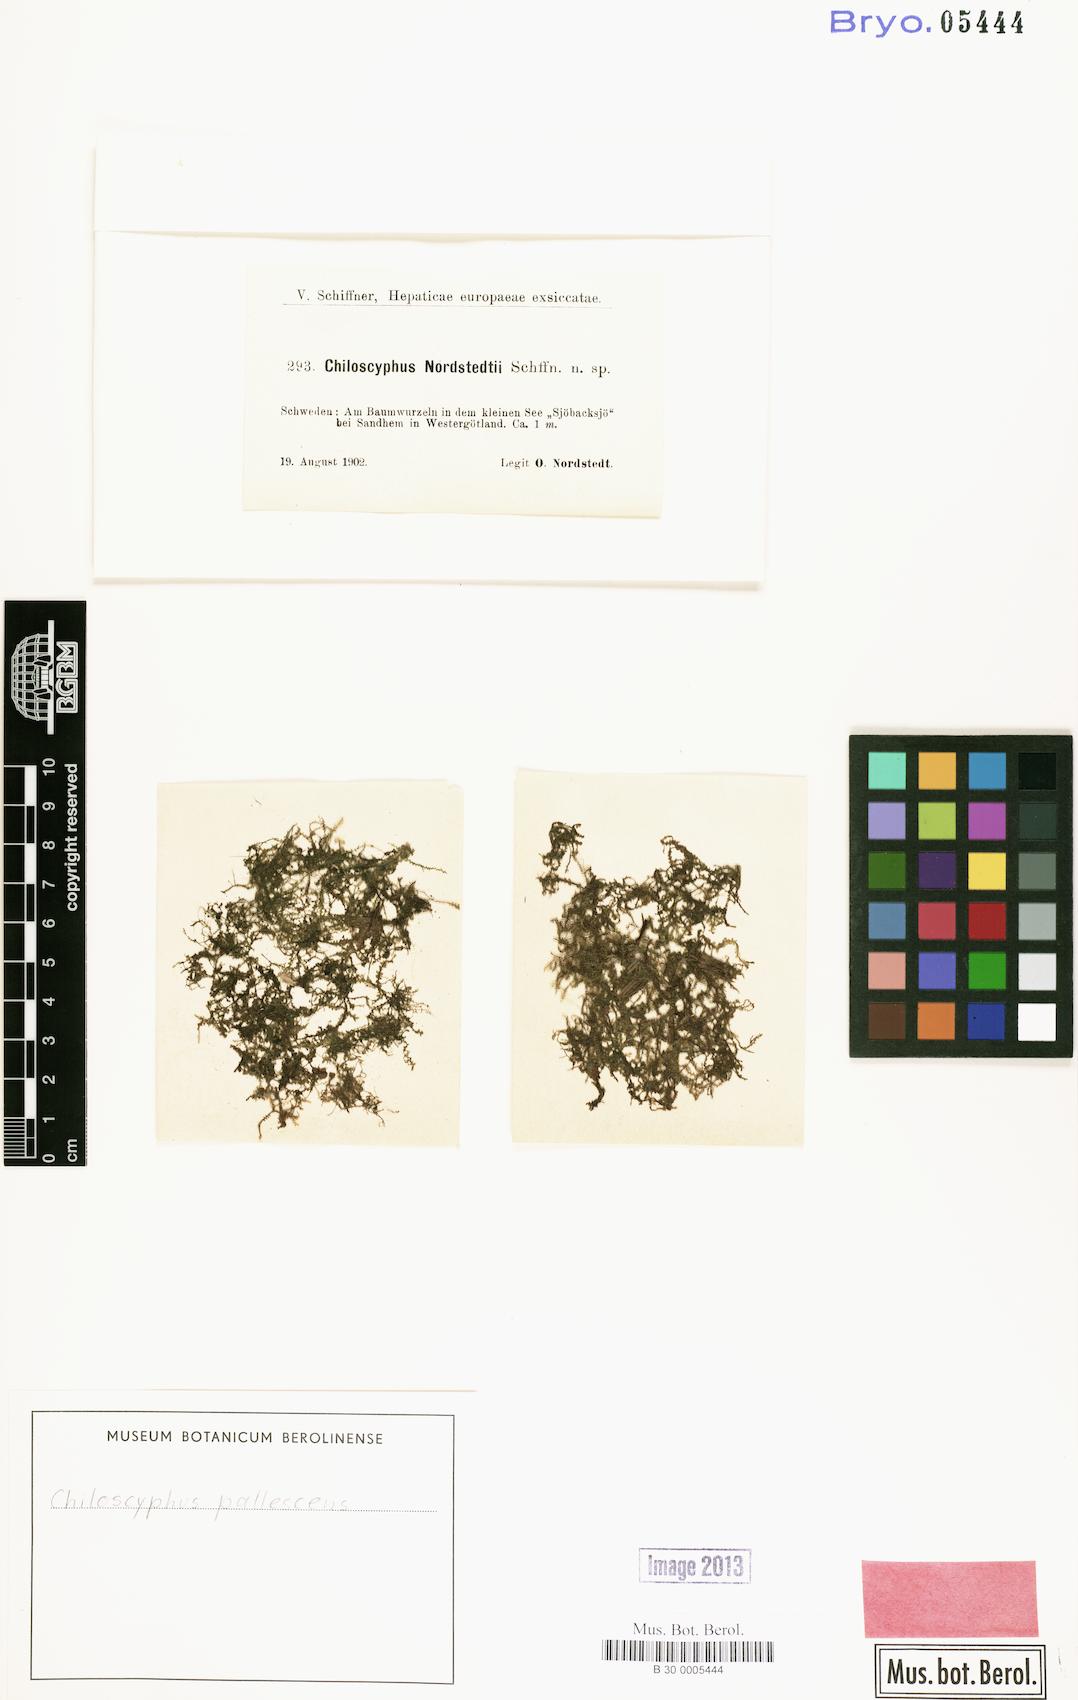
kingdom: Plantae
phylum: Marchantiophyta
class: Jungermanniopsida
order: Jungermanniales
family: Lophocoleaceae
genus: Chiloscyphus
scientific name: Chiloscyphus pallescens
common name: St winifrid's other moss
